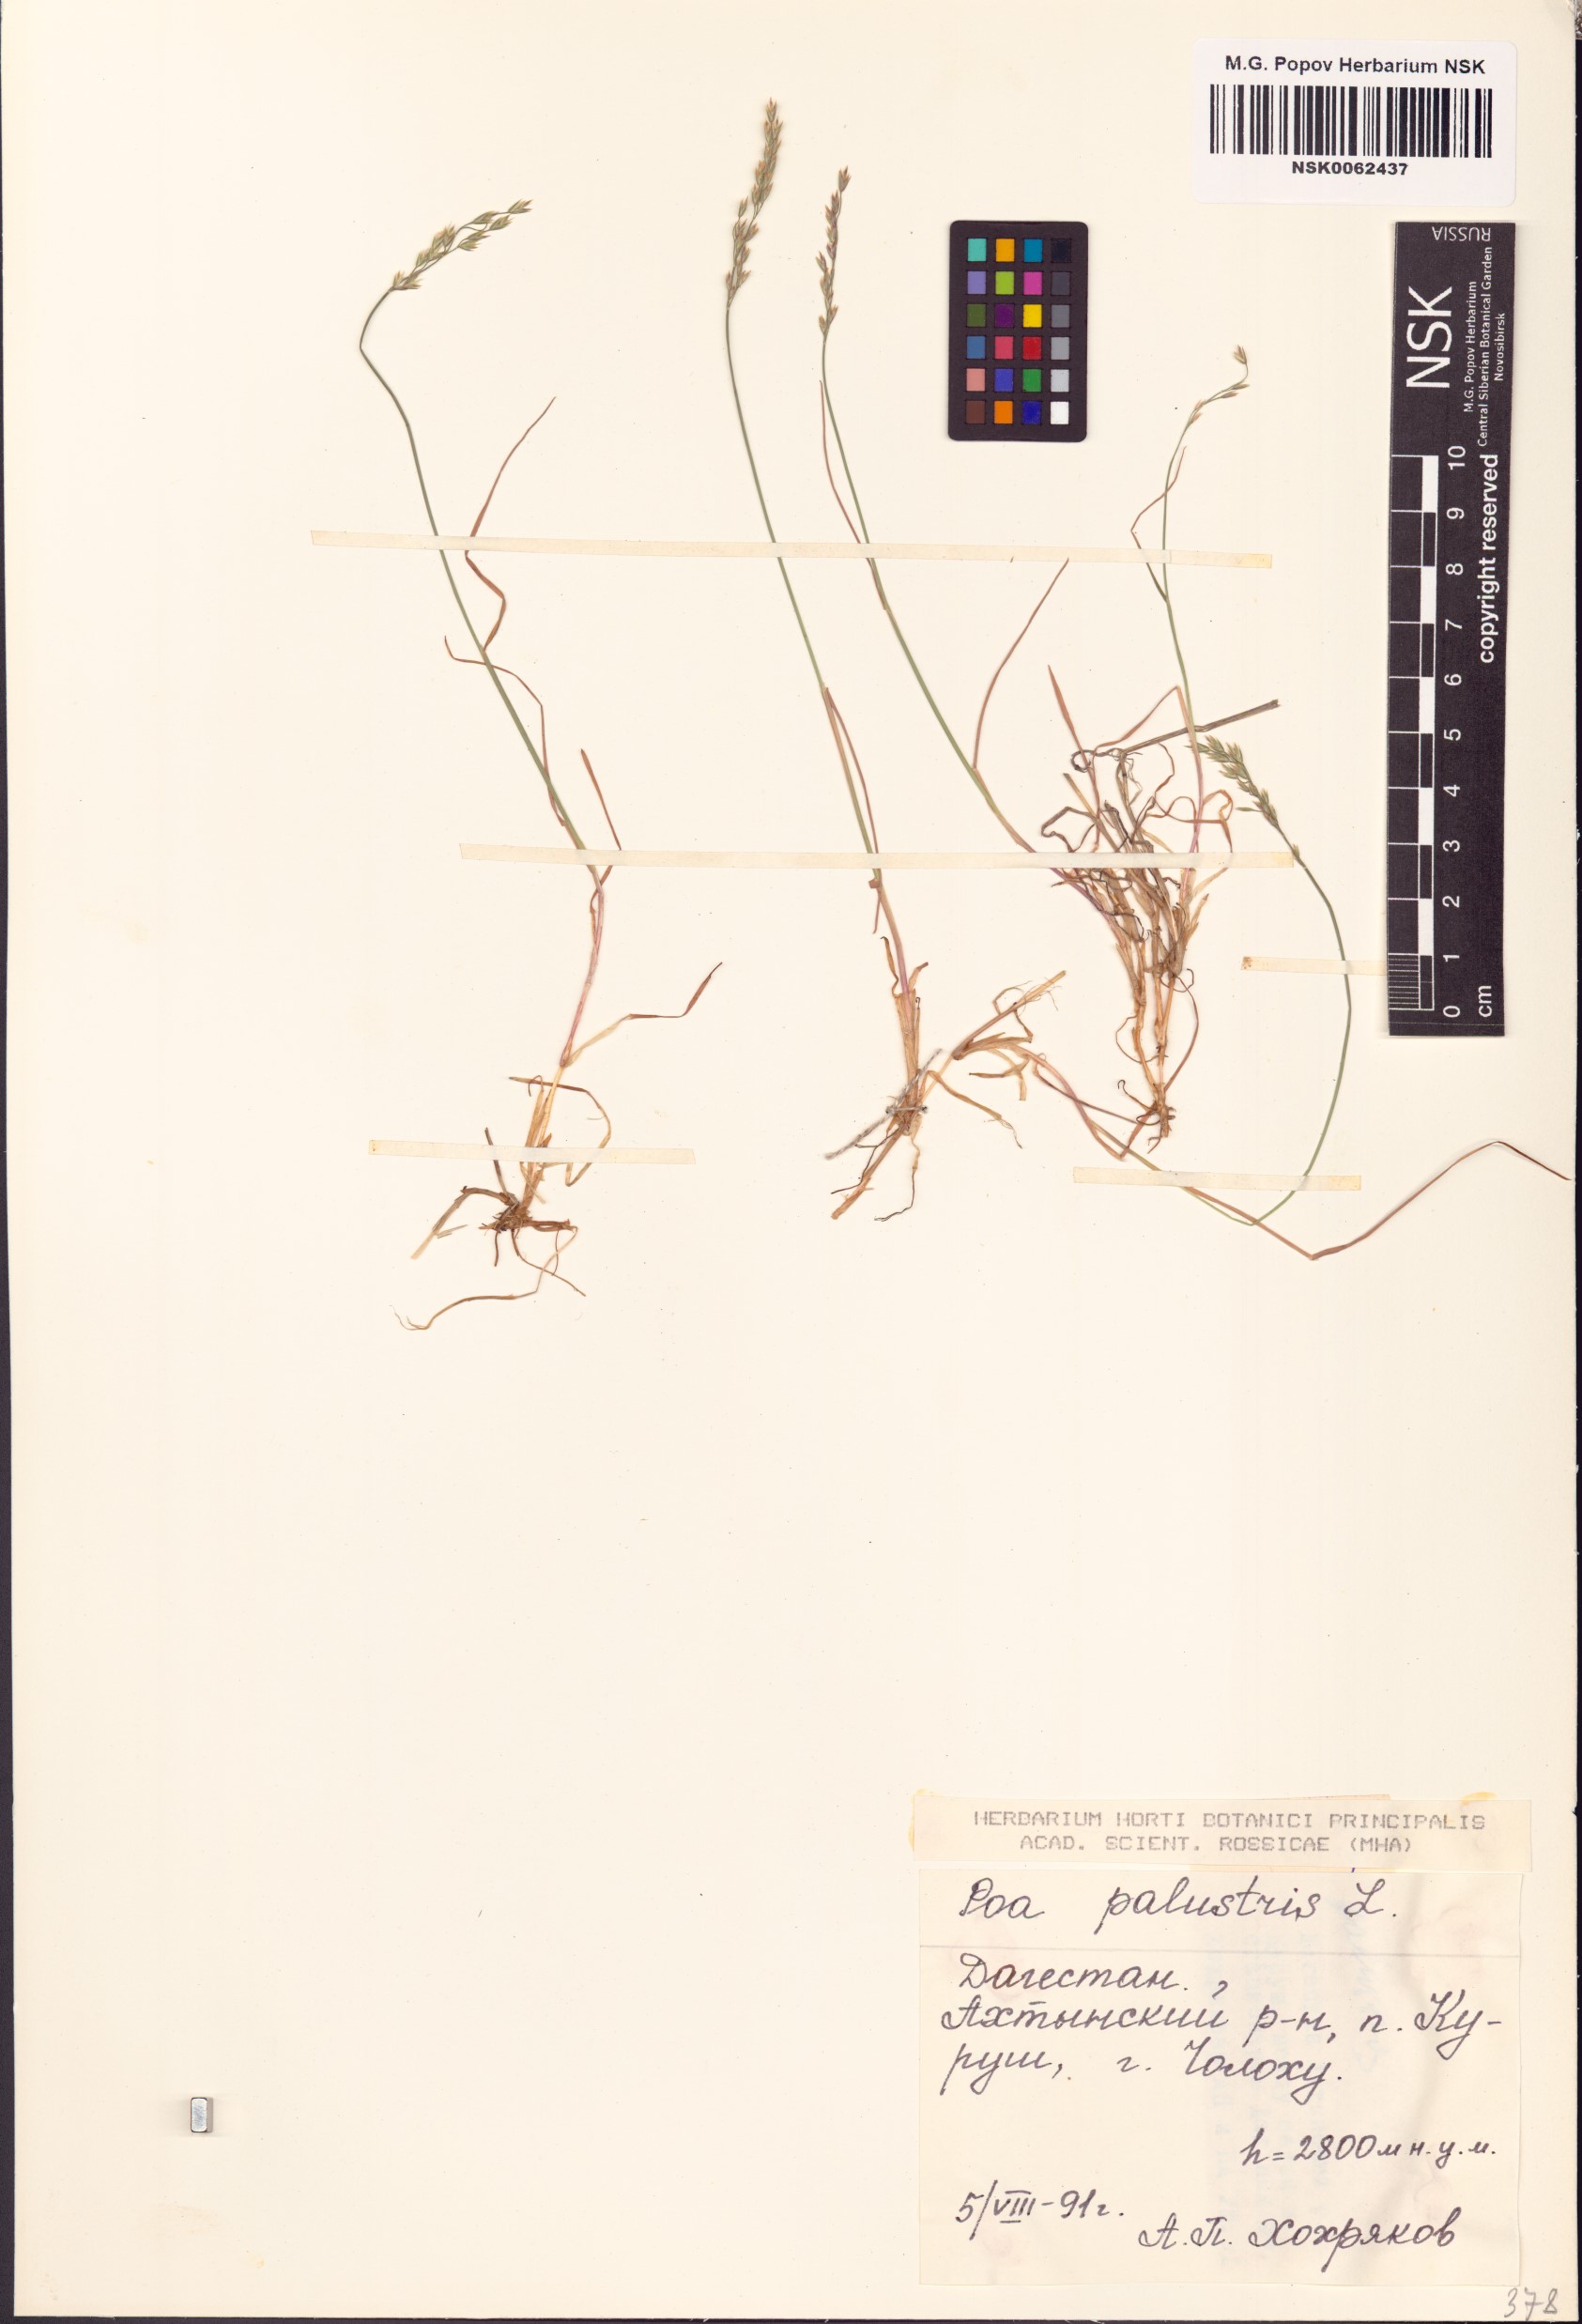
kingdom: Plantae
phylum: Tracheophyta
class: Liliopsida
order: Poales
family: Poaceae
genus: Poa
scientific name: Poa palustris
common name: Swamp meadow-grass
